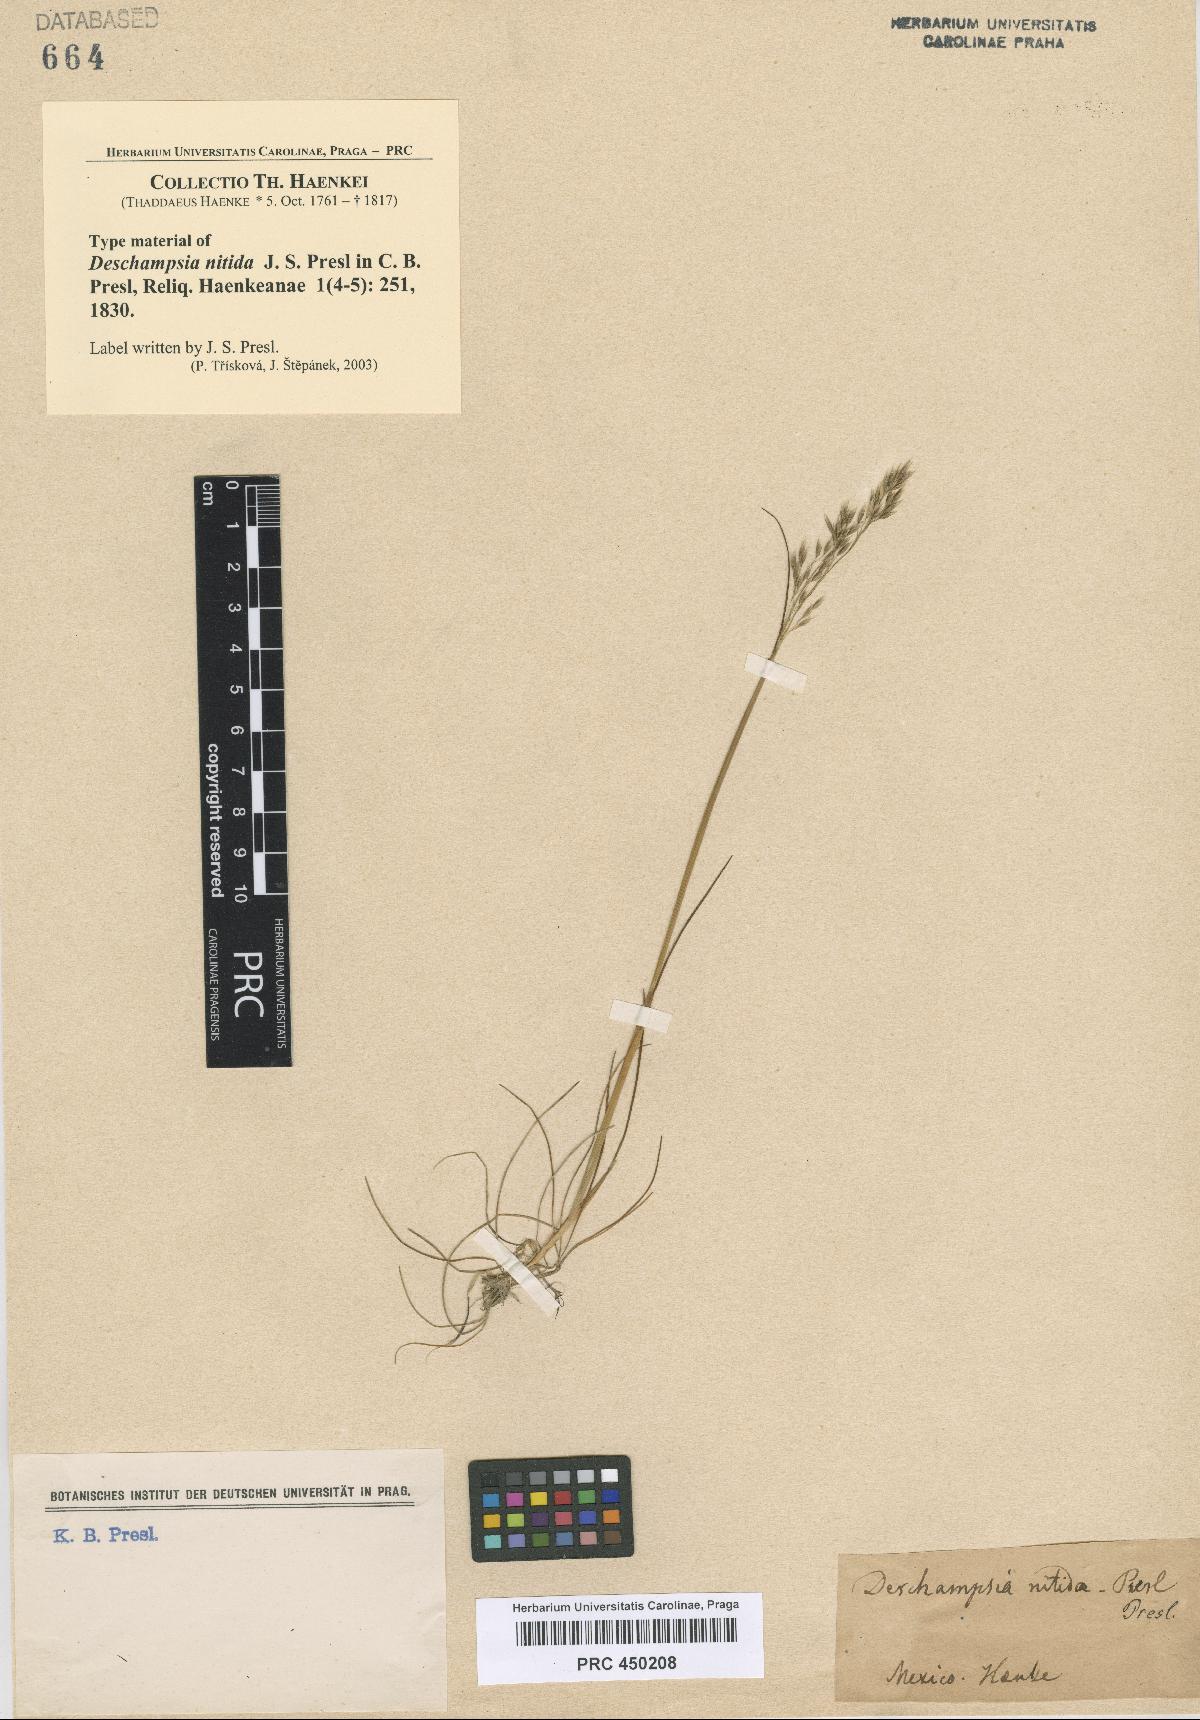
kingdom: Plantae
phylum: Tracheophyta
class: Liliopsida
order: Poales
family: Poaceae
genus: Avenella
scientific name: Avenella flexuosa
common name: Wavy hairgrass
